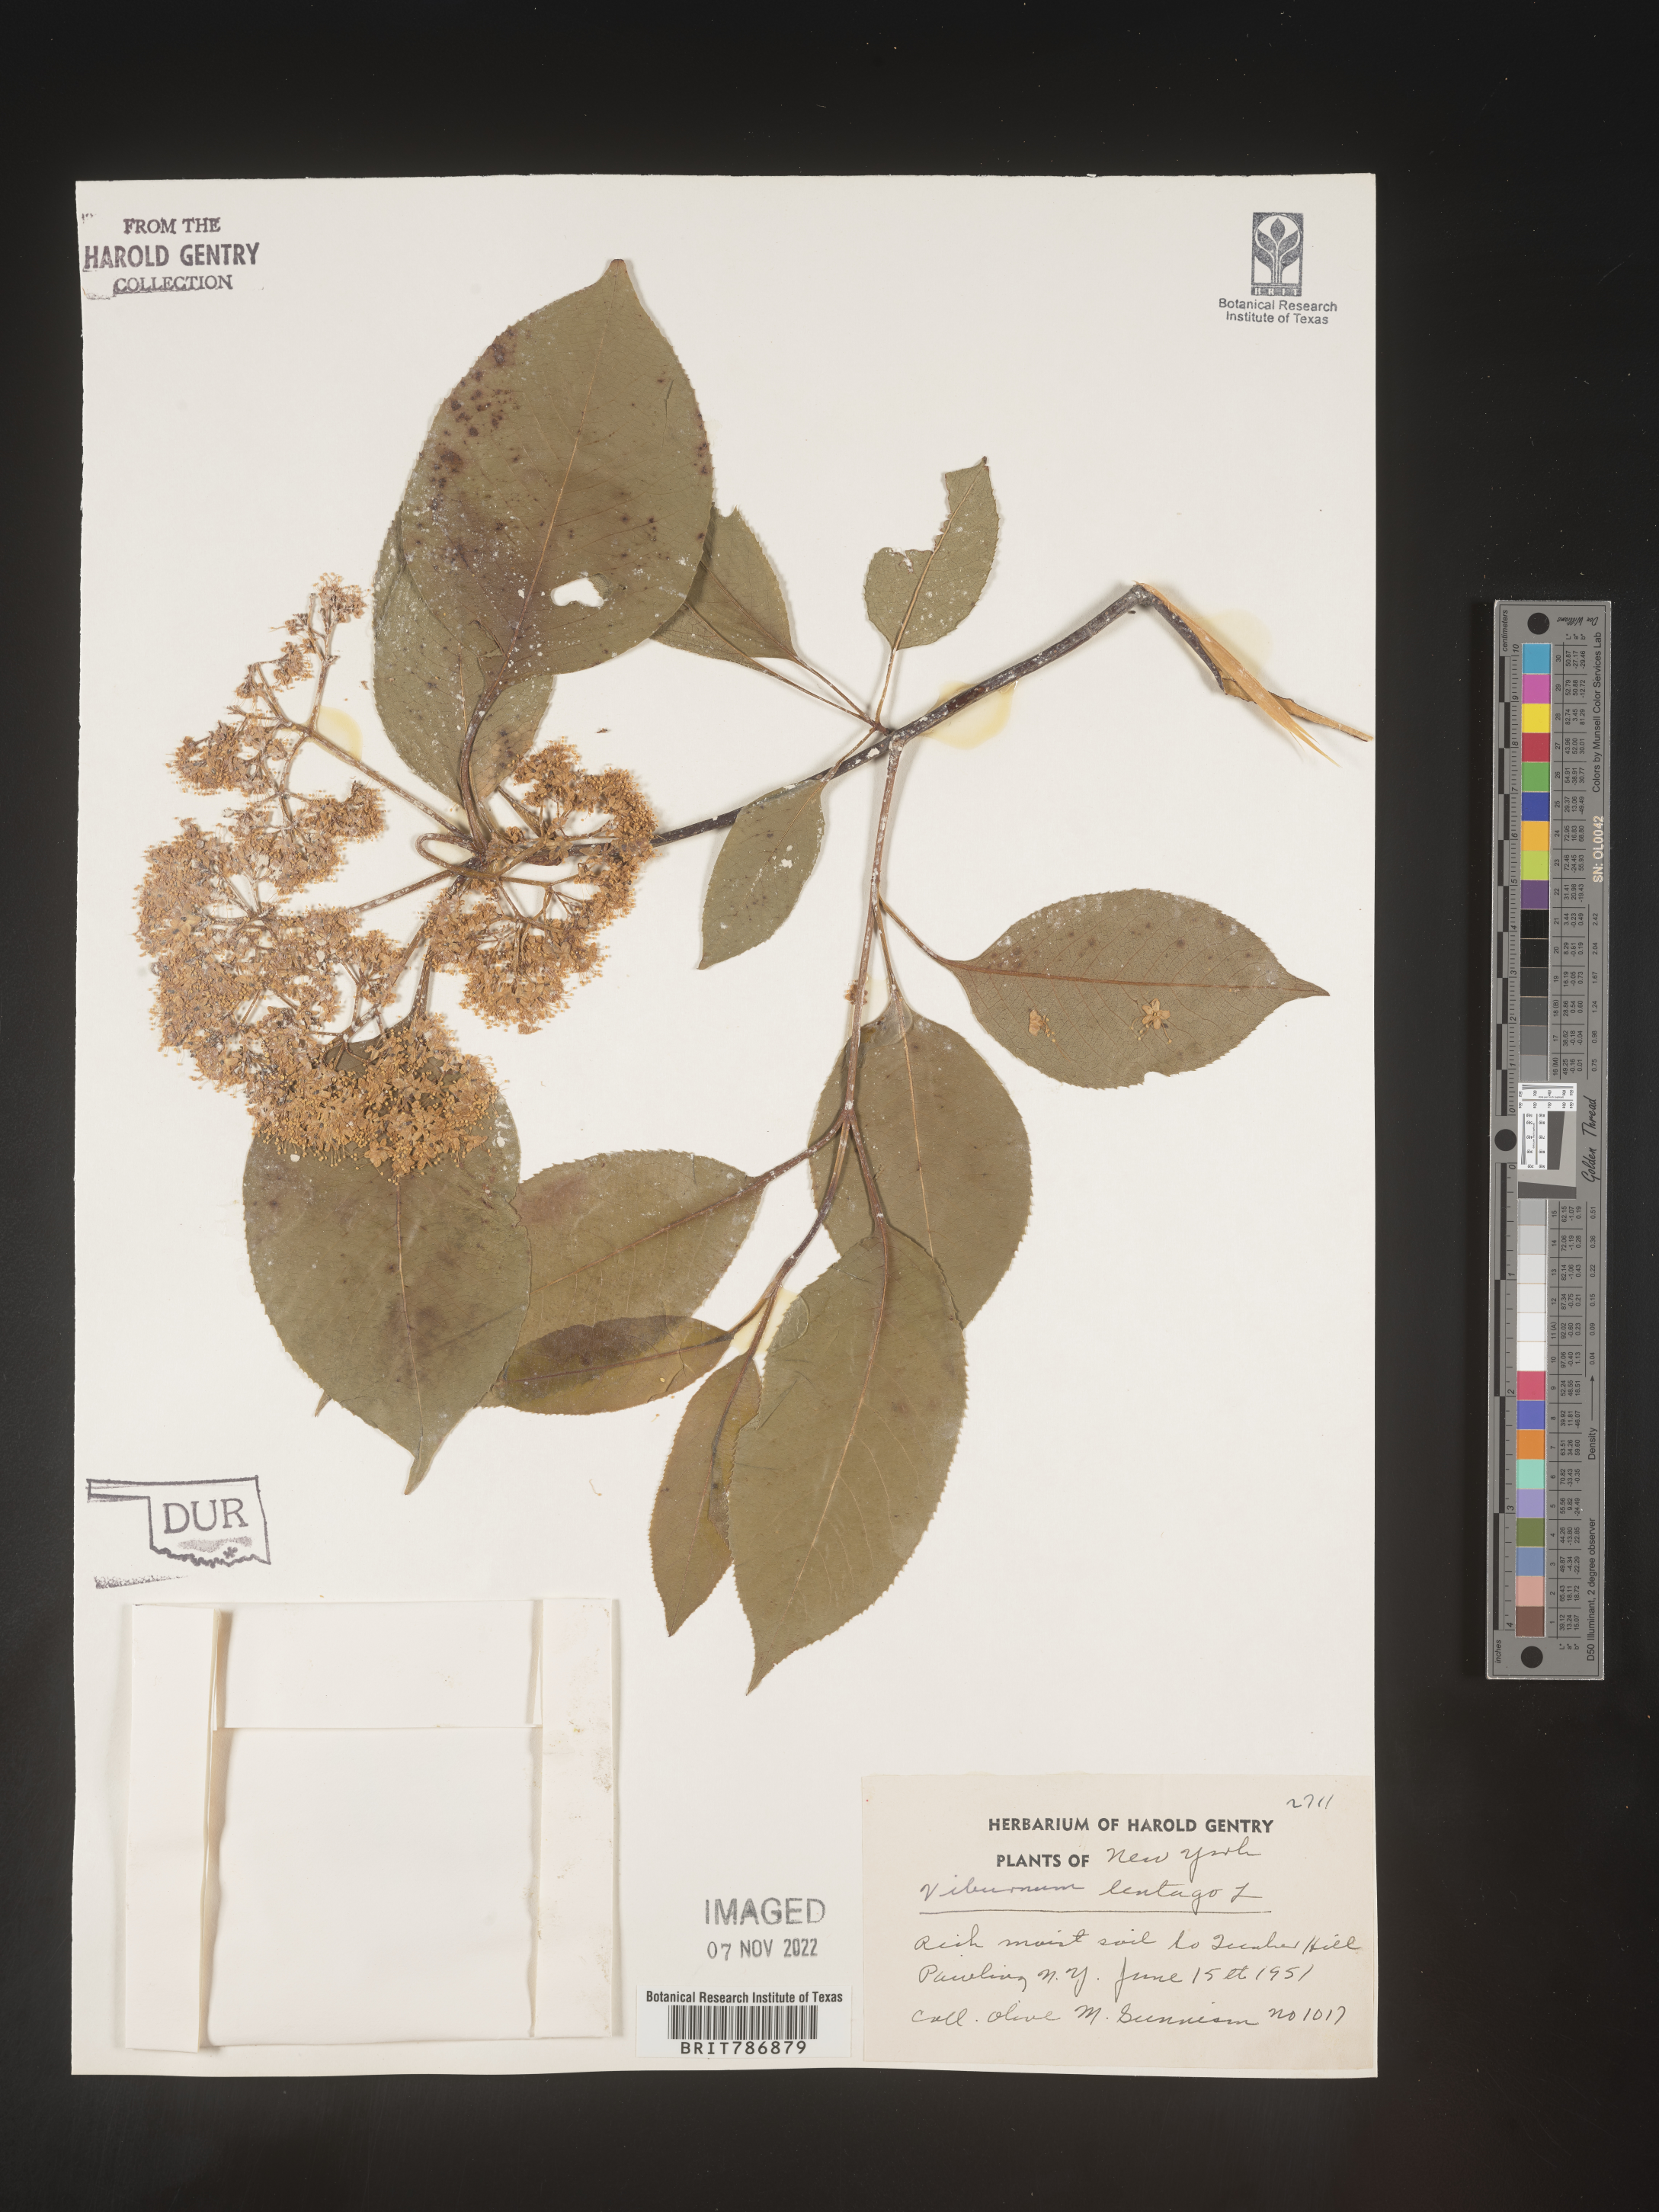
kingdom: Plantae
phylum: Tracheophyta
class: Magnoliopsida
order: Dipsacales
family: Viburnaceae
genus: Viburnum
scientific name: Viburnum lentago
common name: Black haw
